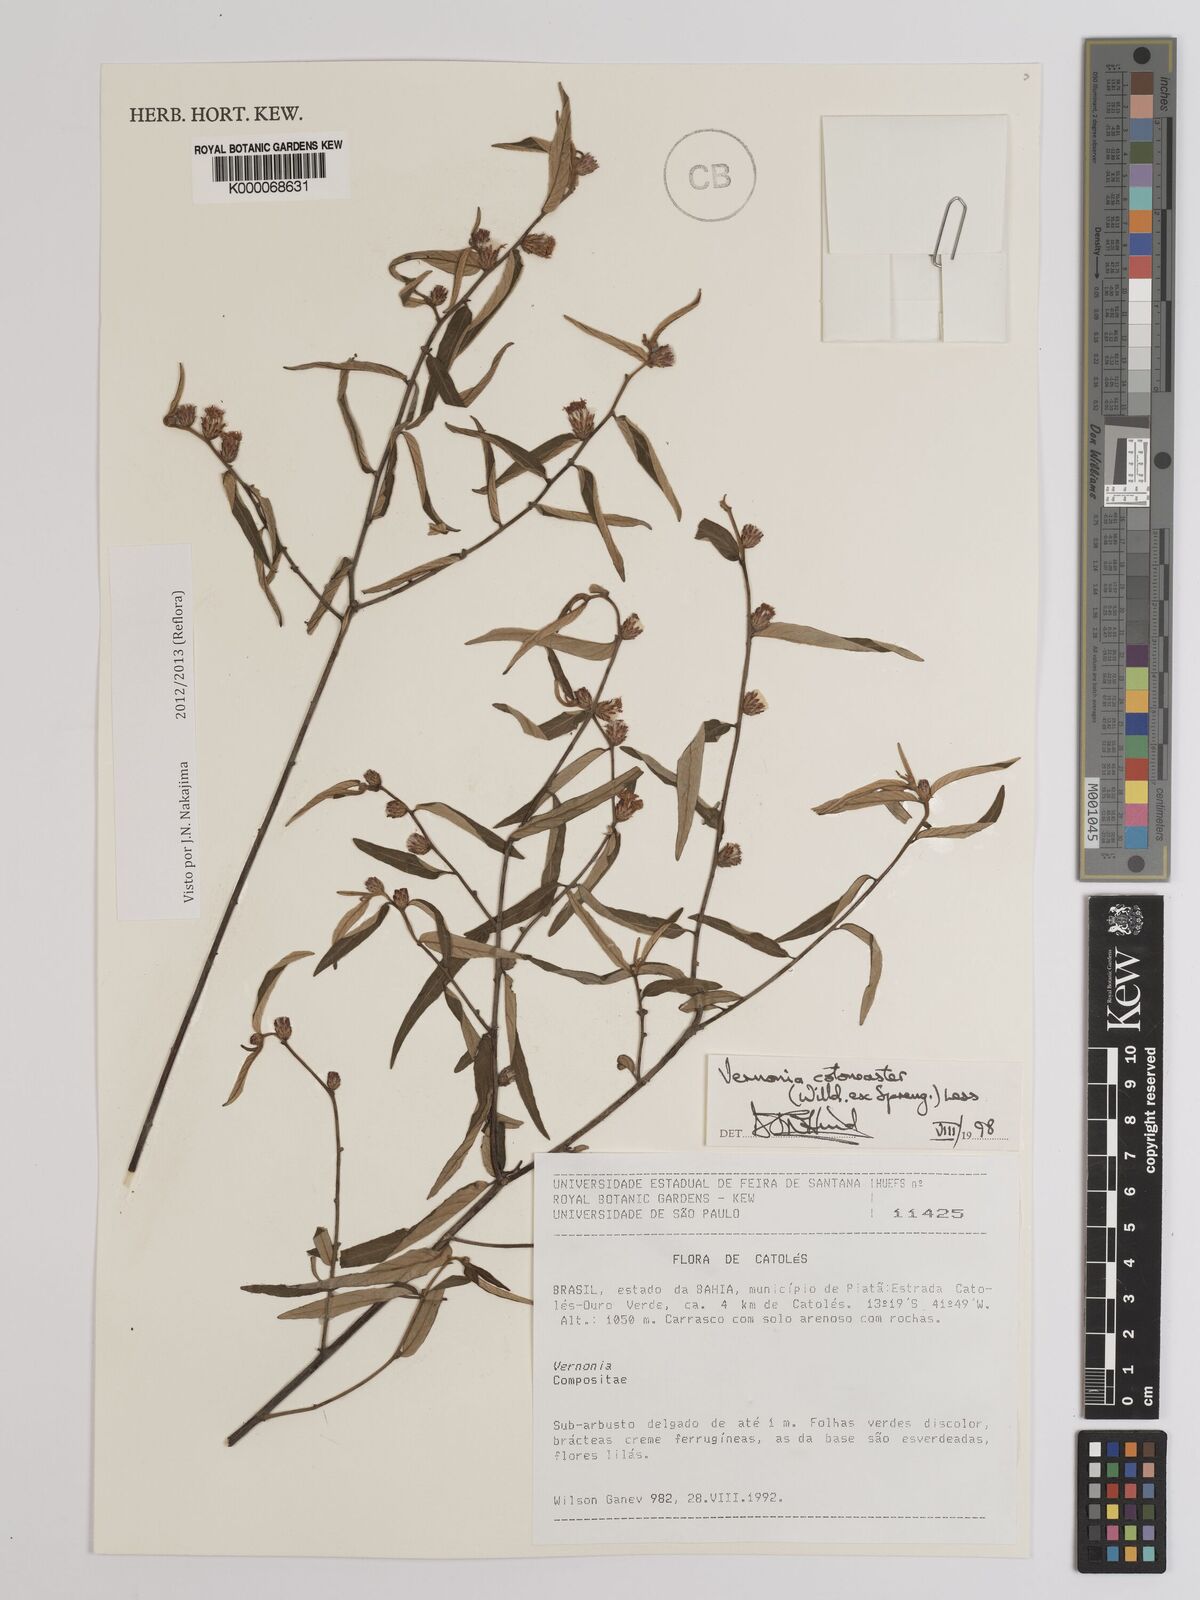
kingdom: Plantae
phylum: Tracheophyta
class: Magnoliopsida
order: Asterales
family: Asteraceae
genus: Lepidaploa
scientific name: Lepidaploa cotoneaster
